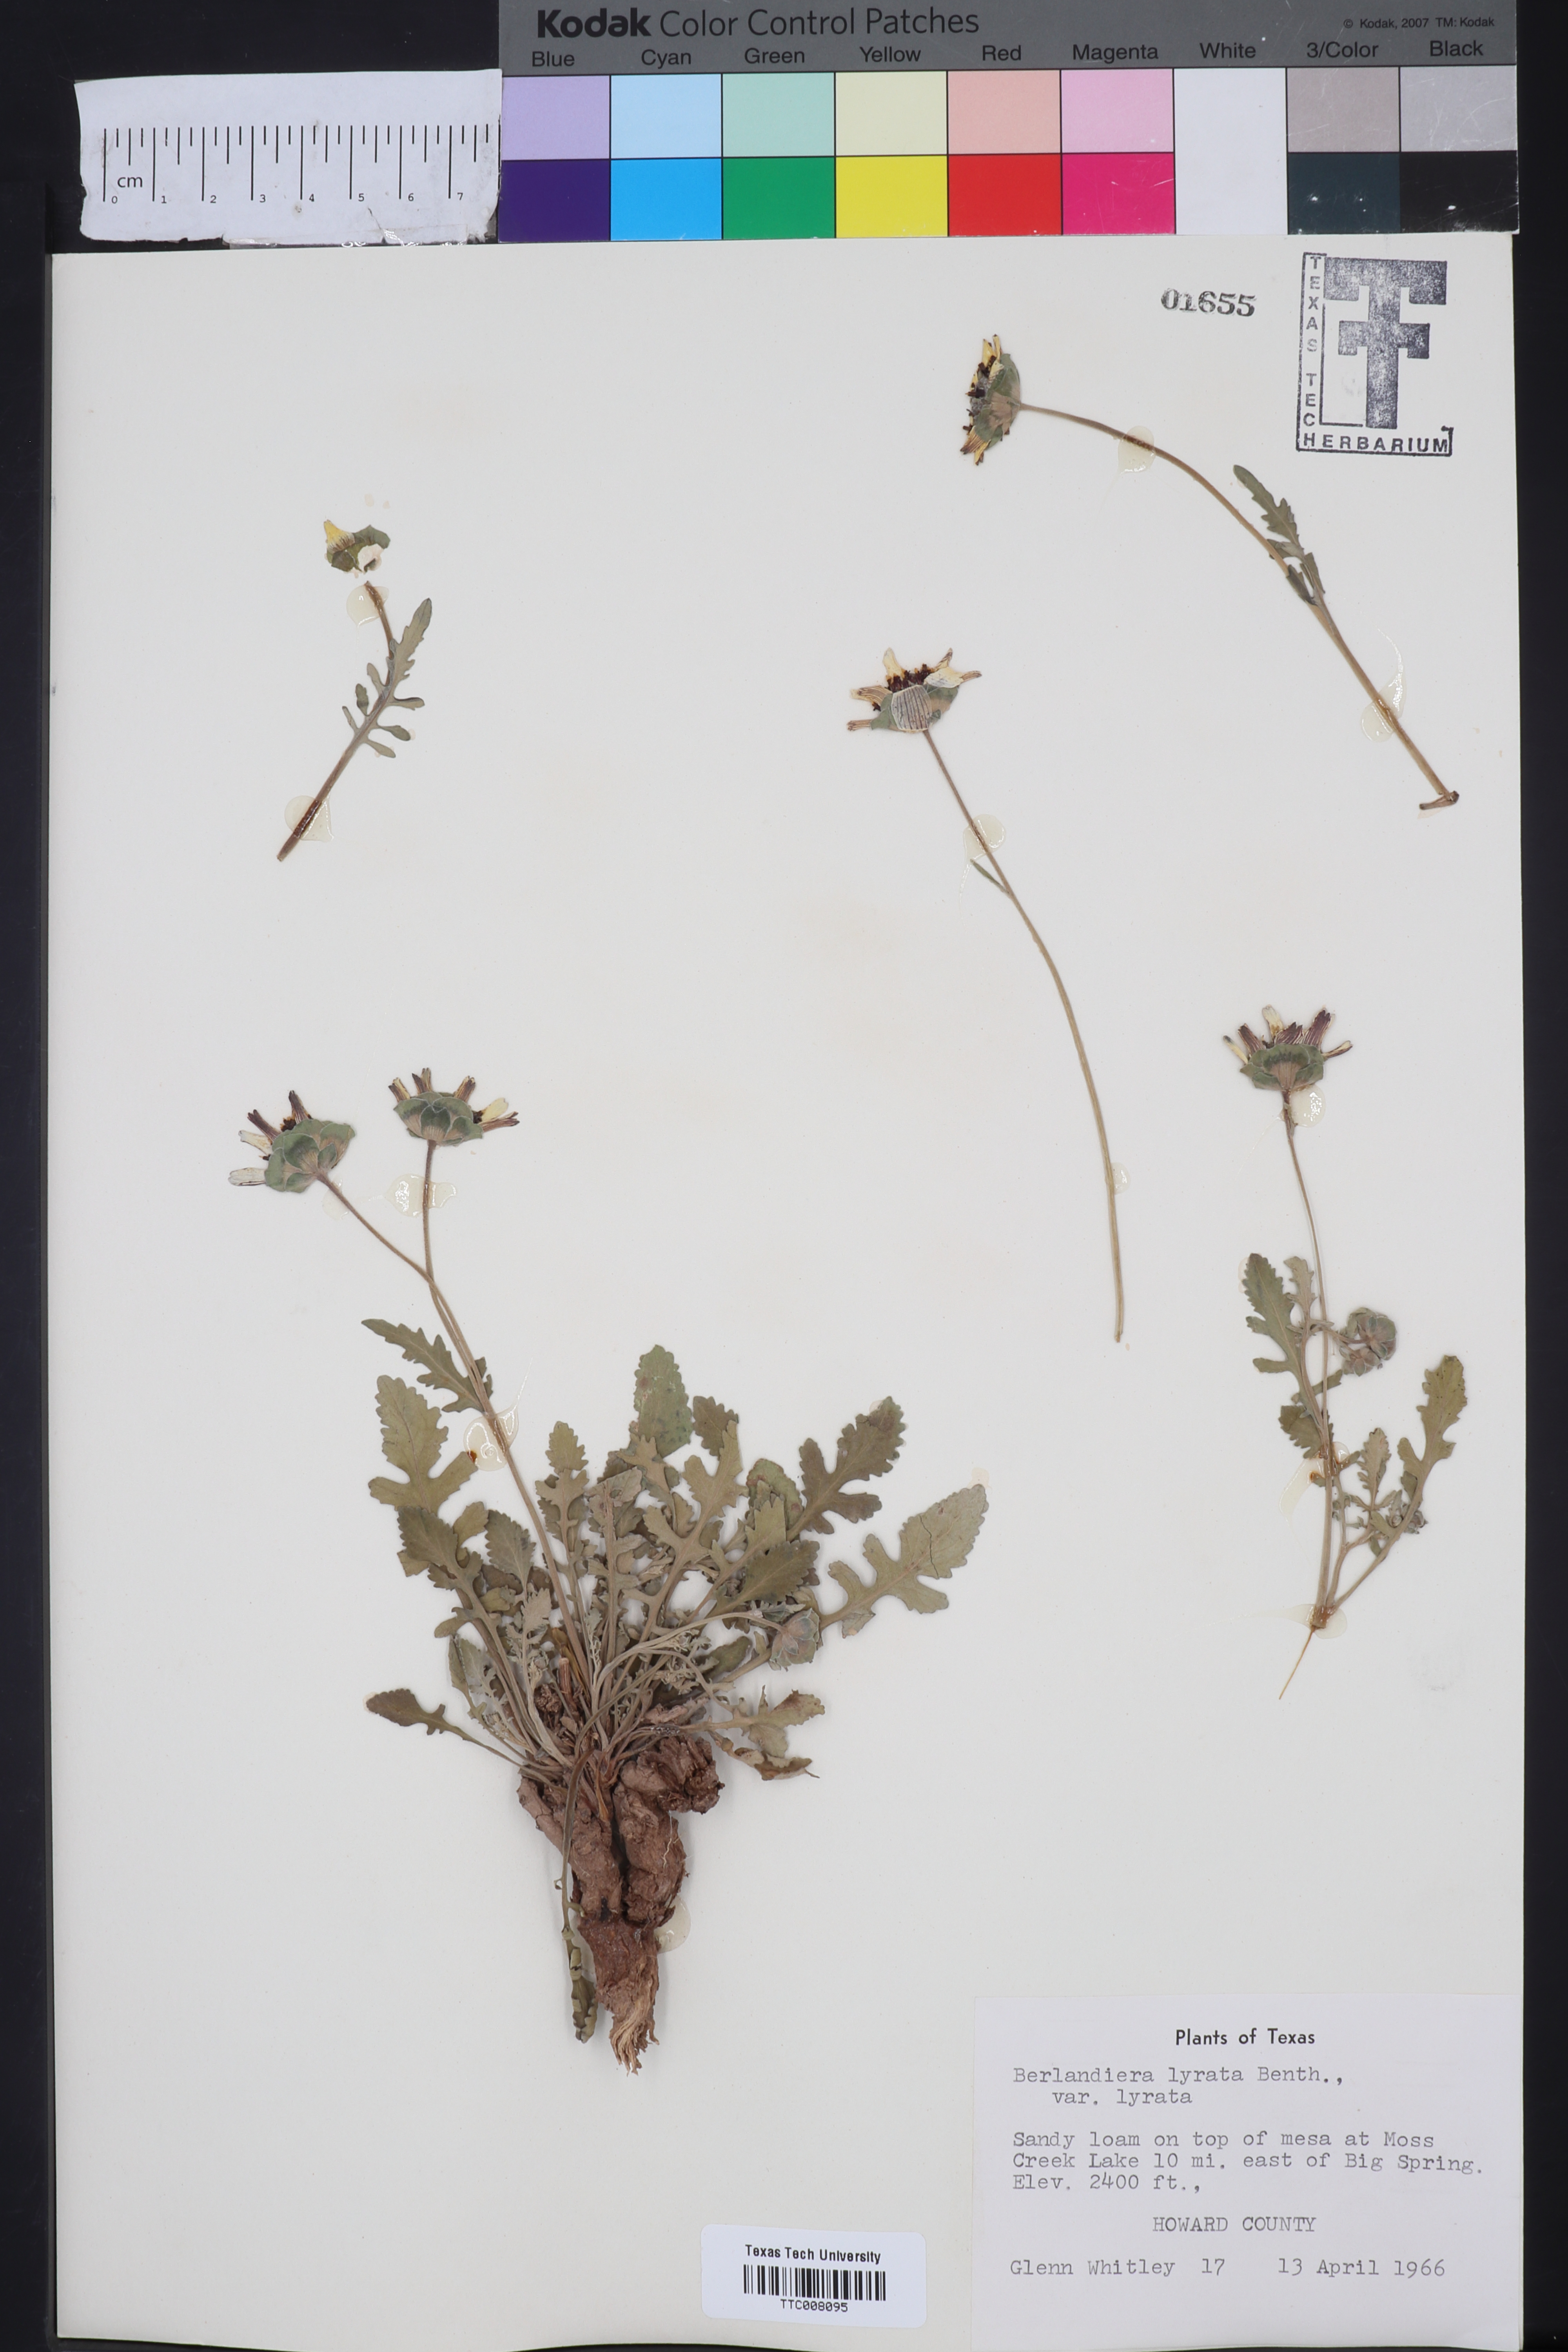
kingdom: Plantae
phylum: Tracheophyta
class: Magnoliopsida
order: Asterales
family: Asteraceae
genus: Berlandiera
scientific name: Berlandiera lyrata
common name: Chocolate-flower
